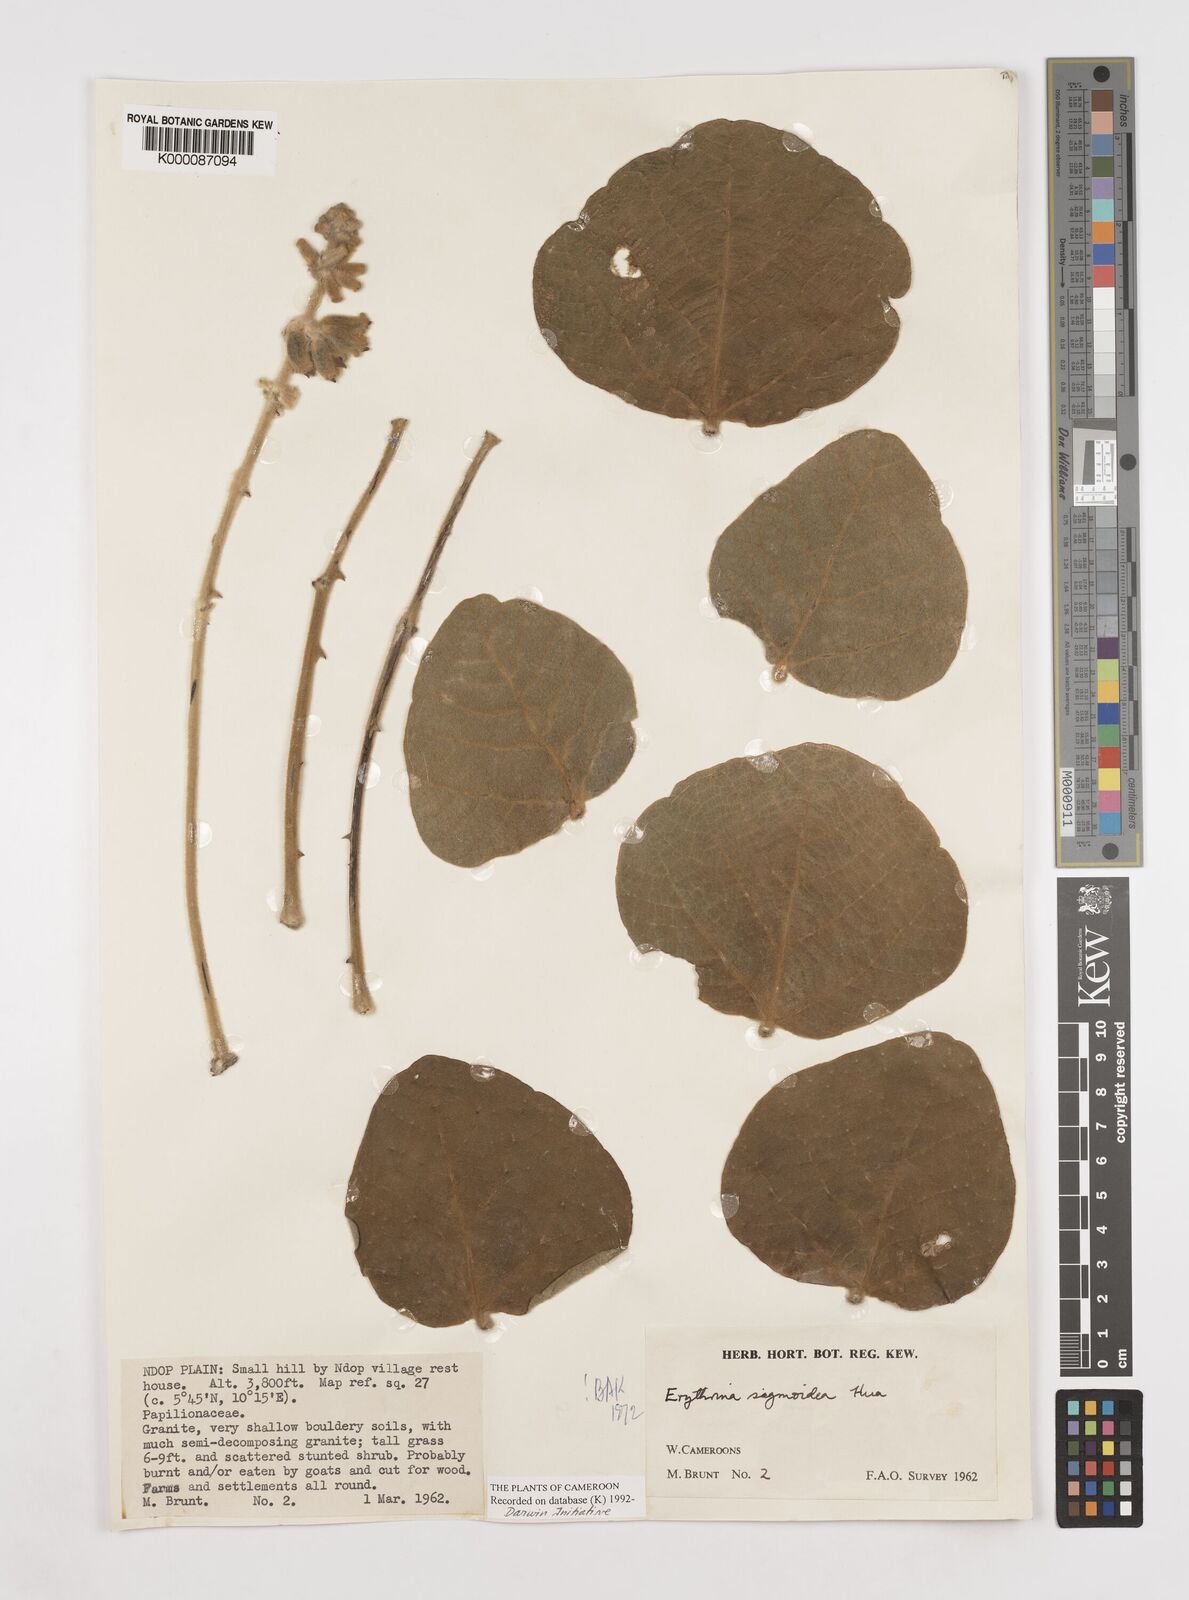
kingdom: Plantae
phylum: Tracheophyta
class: Magnoliopsida
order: Fabales
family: Fabaceae
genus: Erythrina
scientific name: Erythrina sigmoidea
